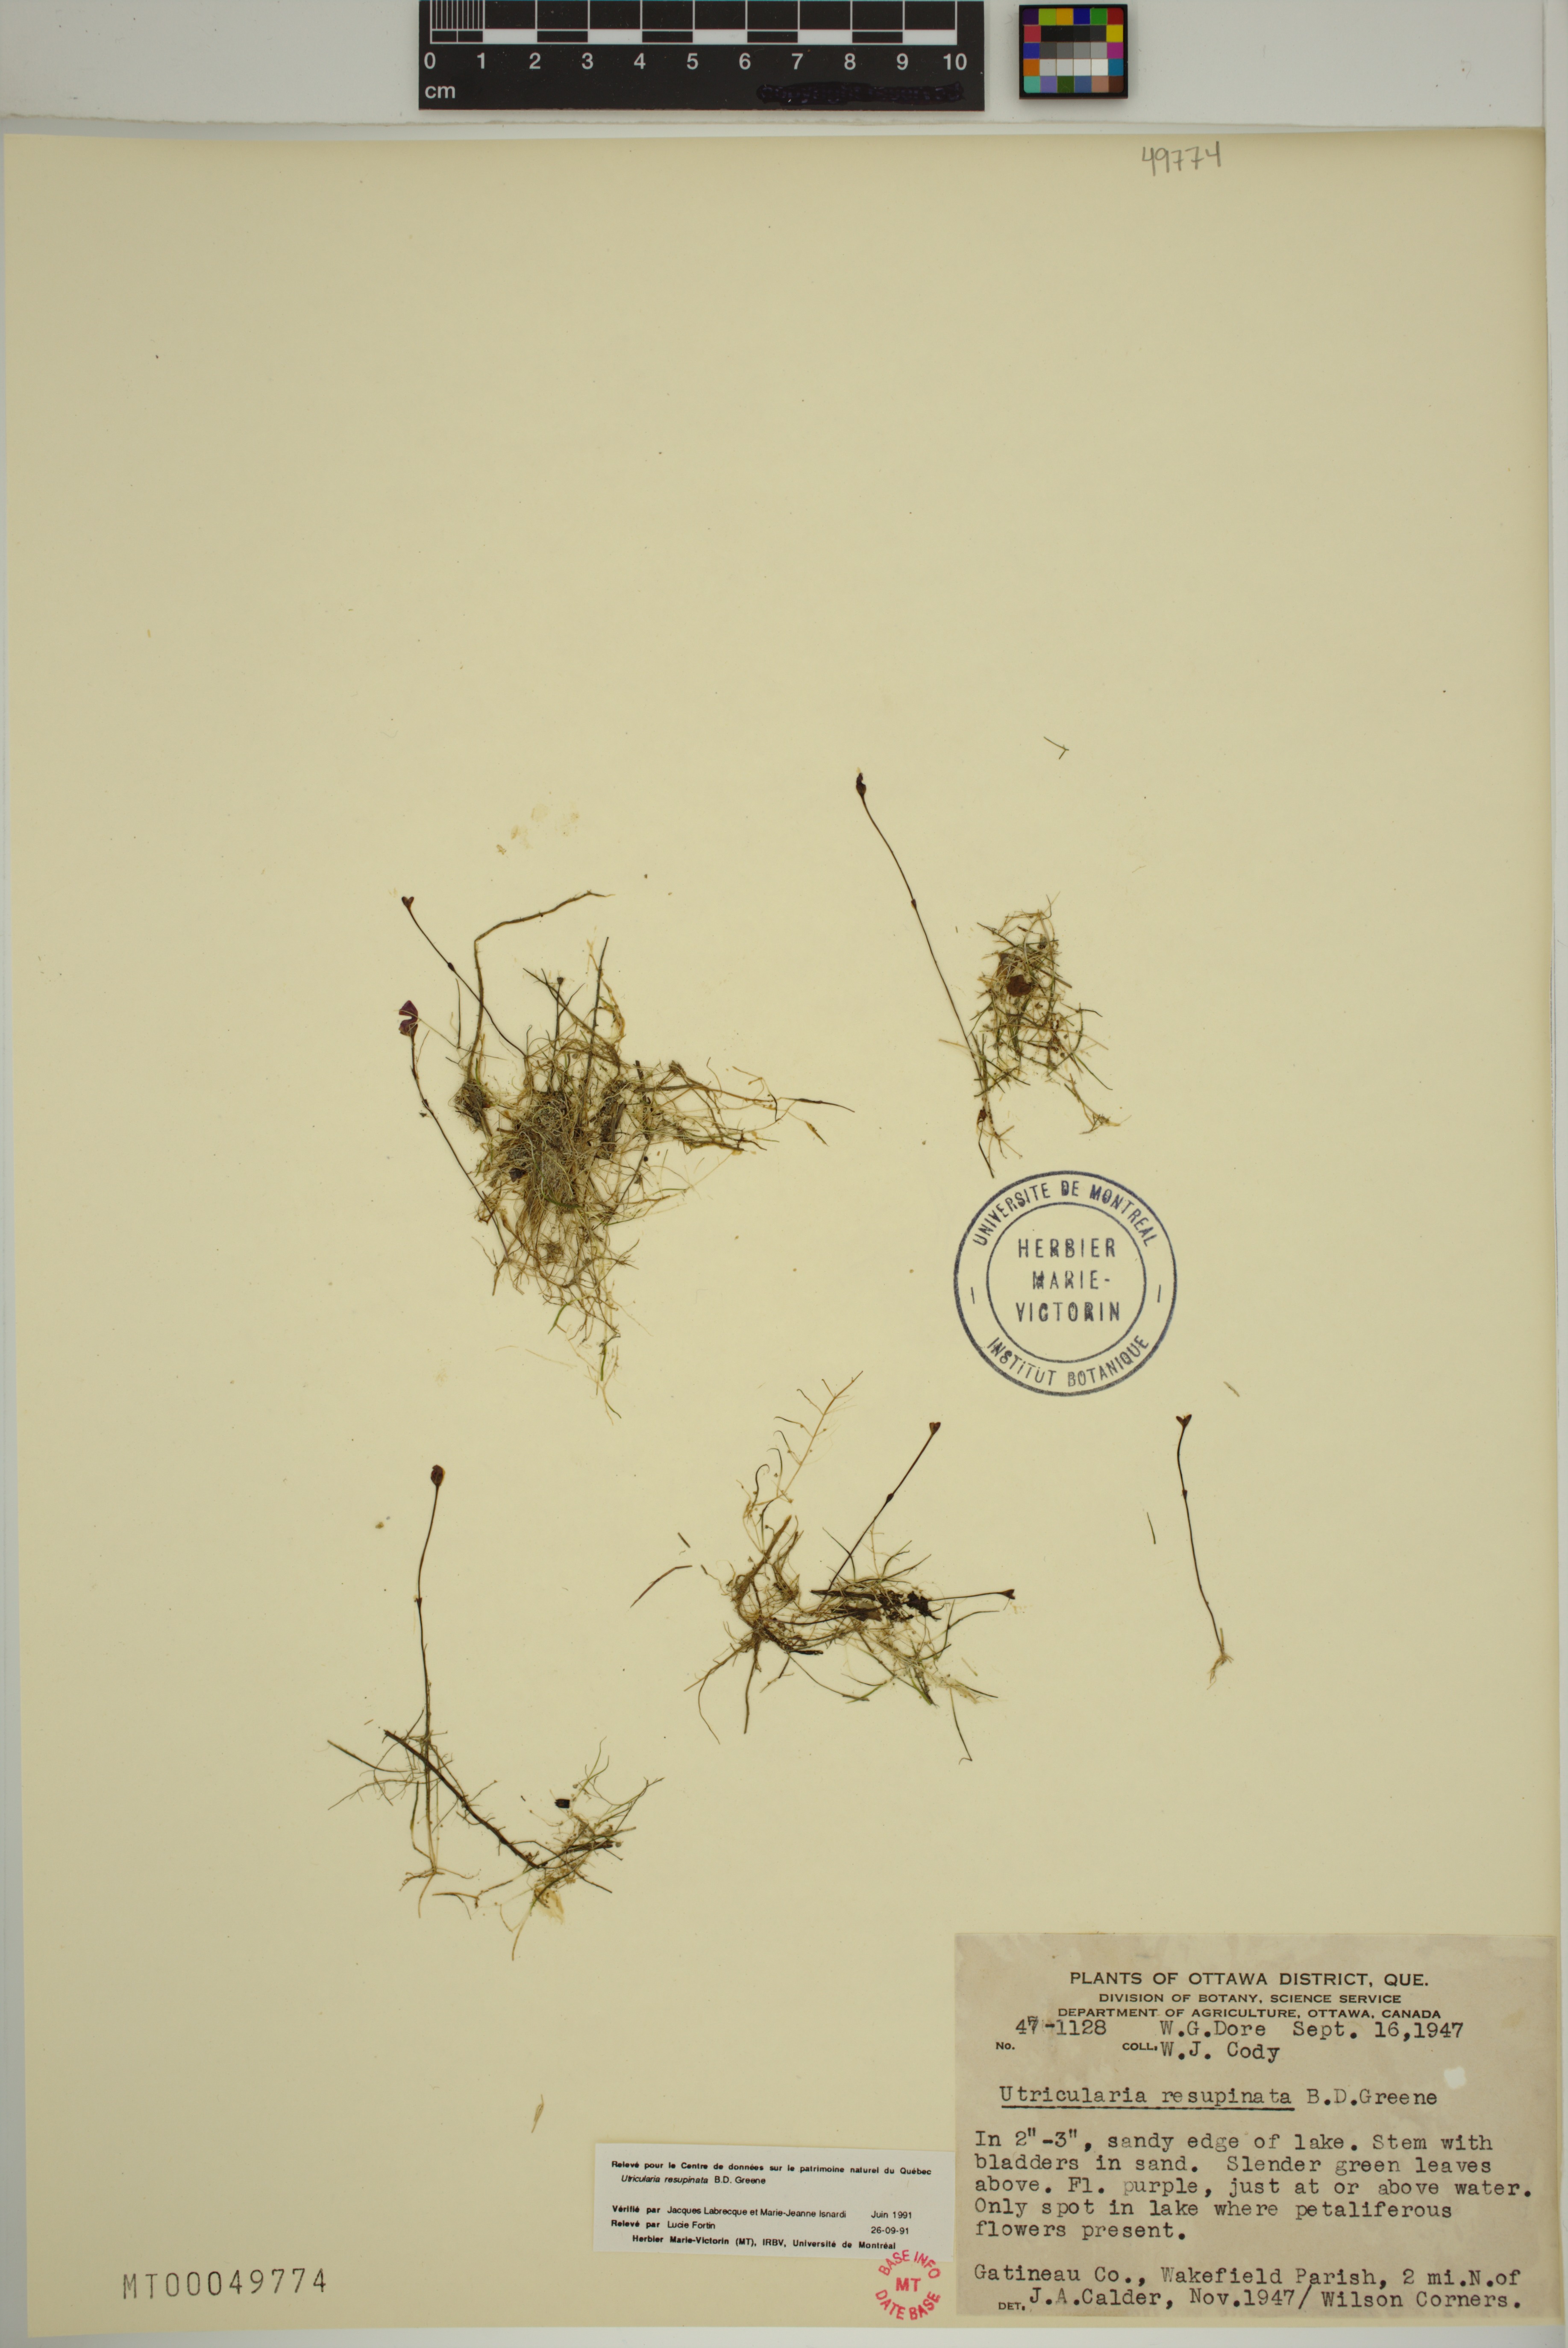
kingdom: Plantae
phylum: Tracheophyta
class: Magnoliopsida
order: Lamiales
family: Lentibulariaceae
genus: Utricularia
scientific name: Utricularia resupinata
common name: Northeastern bladderwort
